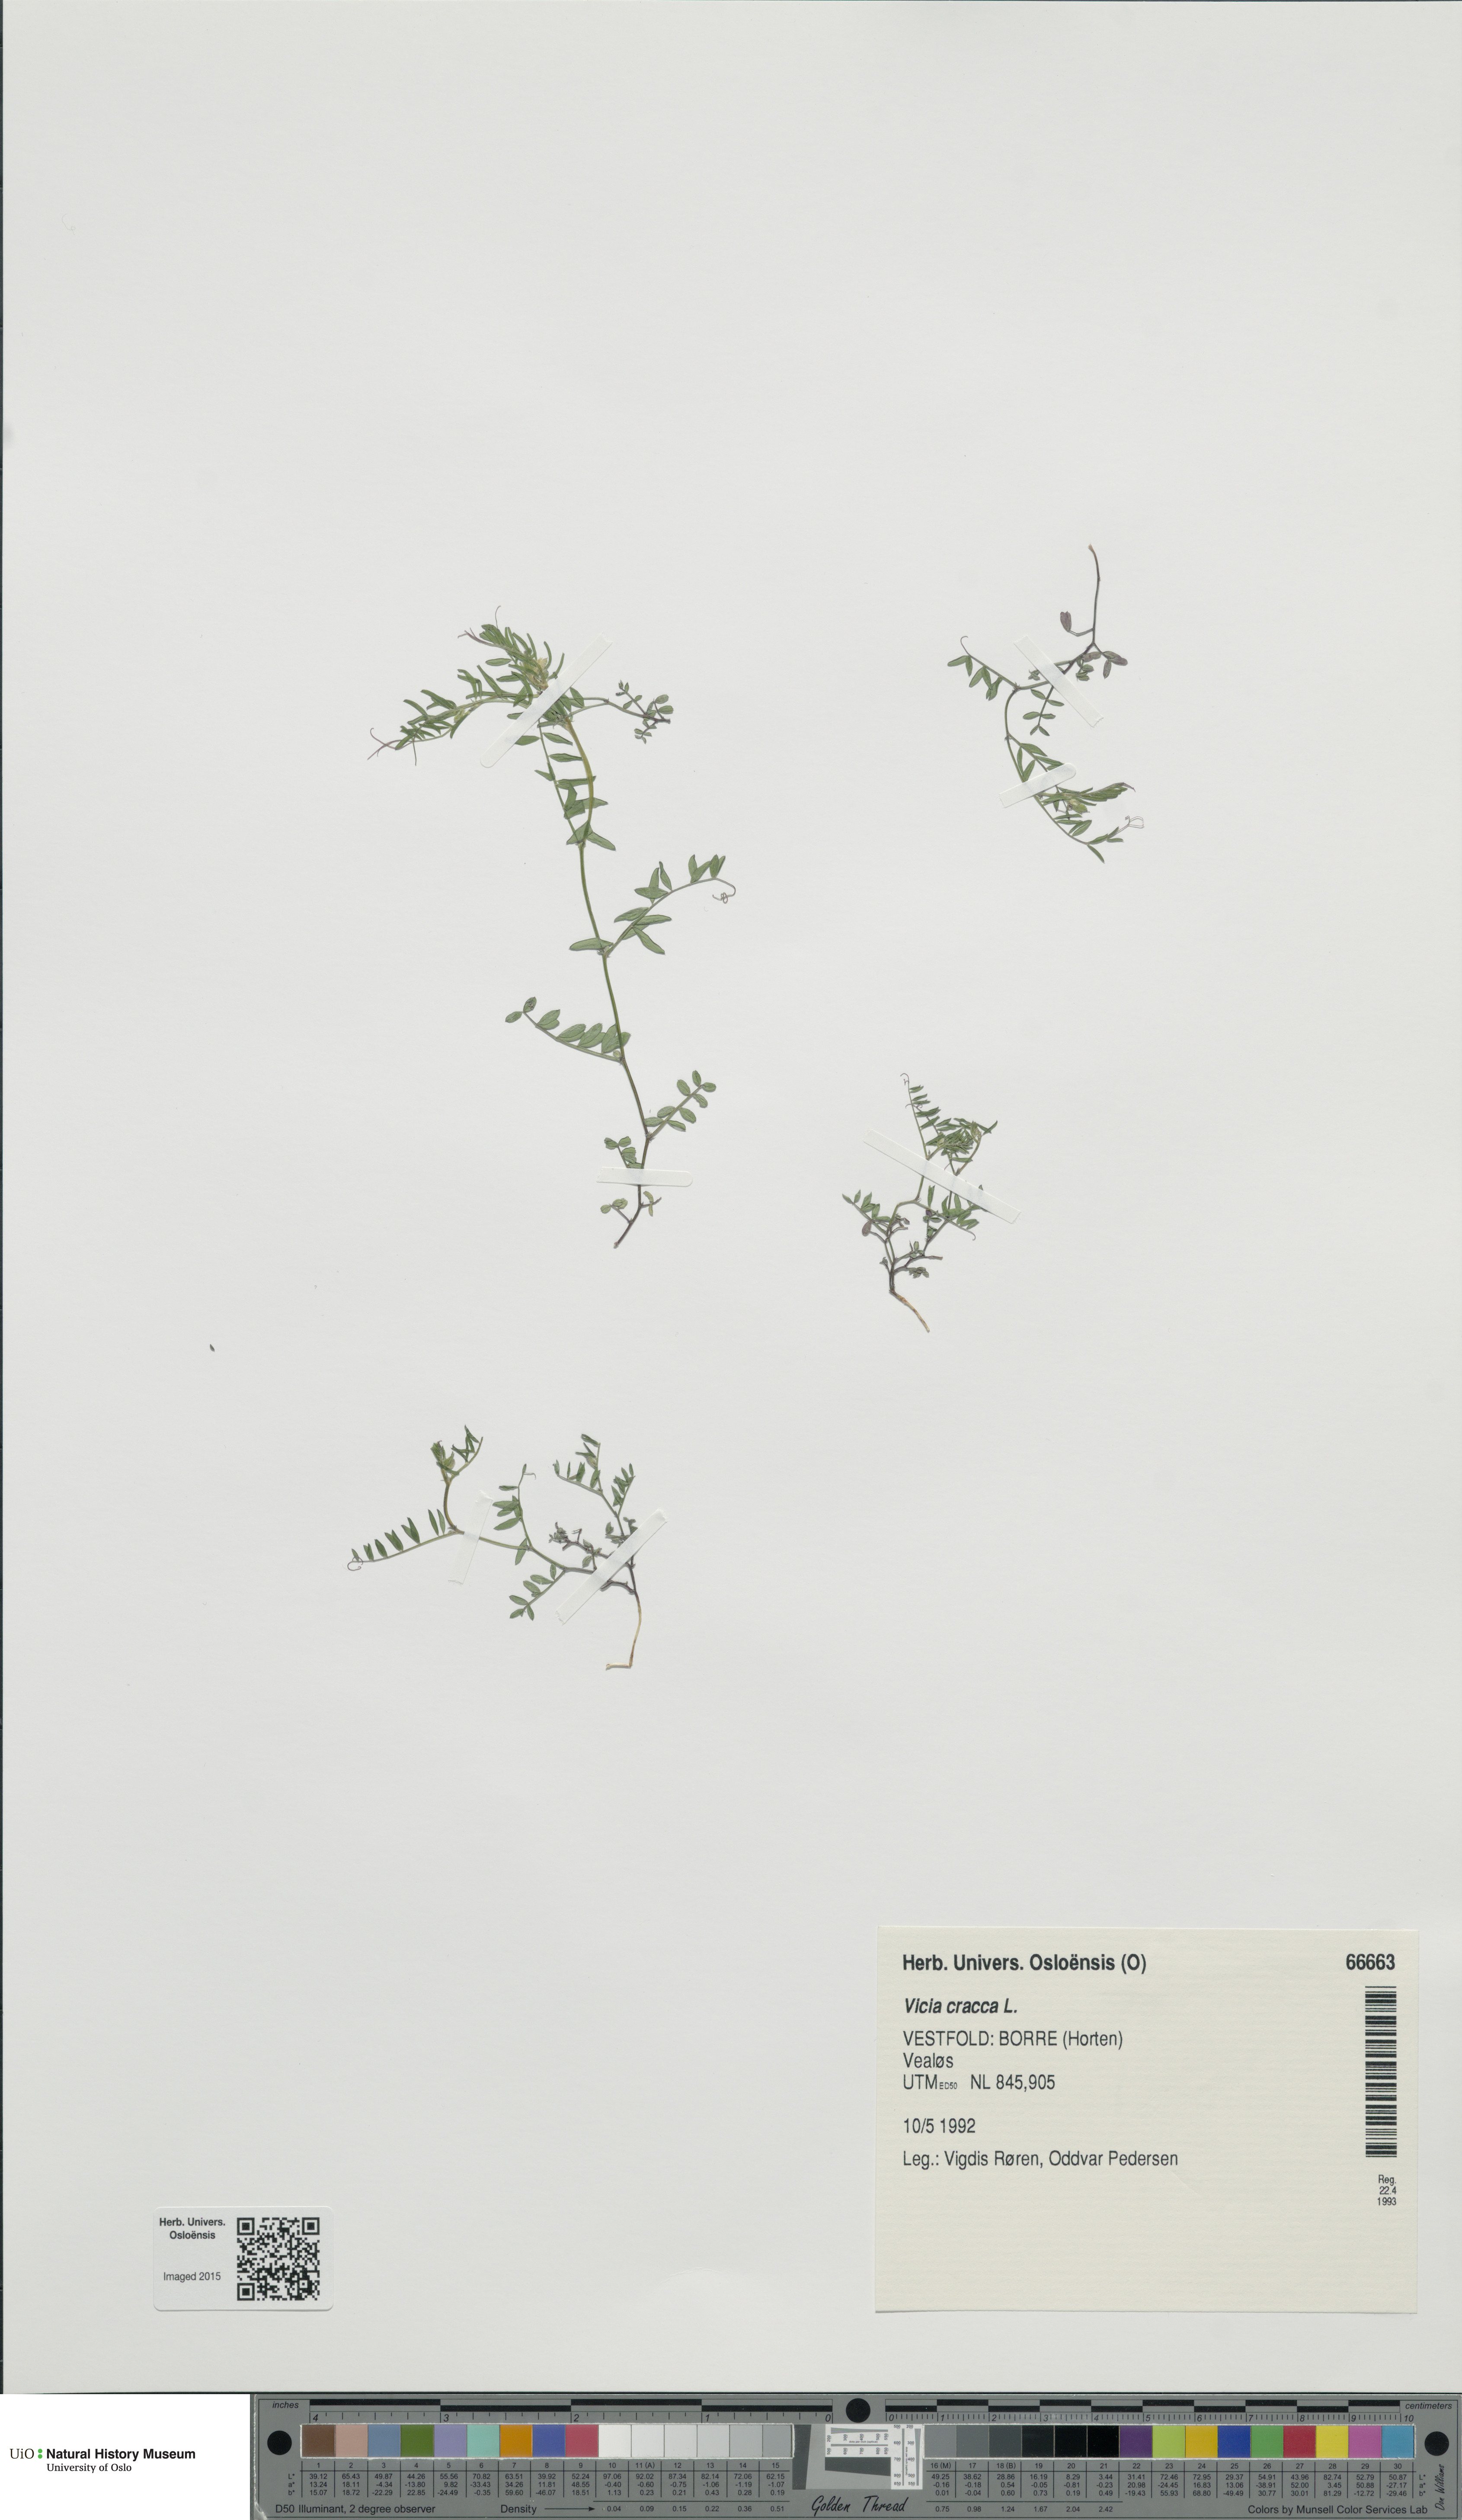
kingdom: Plantae
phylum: Tracheophyta
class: Magnoliopsida
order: Fabales
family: Fabaceae
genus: Vicia
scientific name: Vicia cracca
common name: Bird vetch
